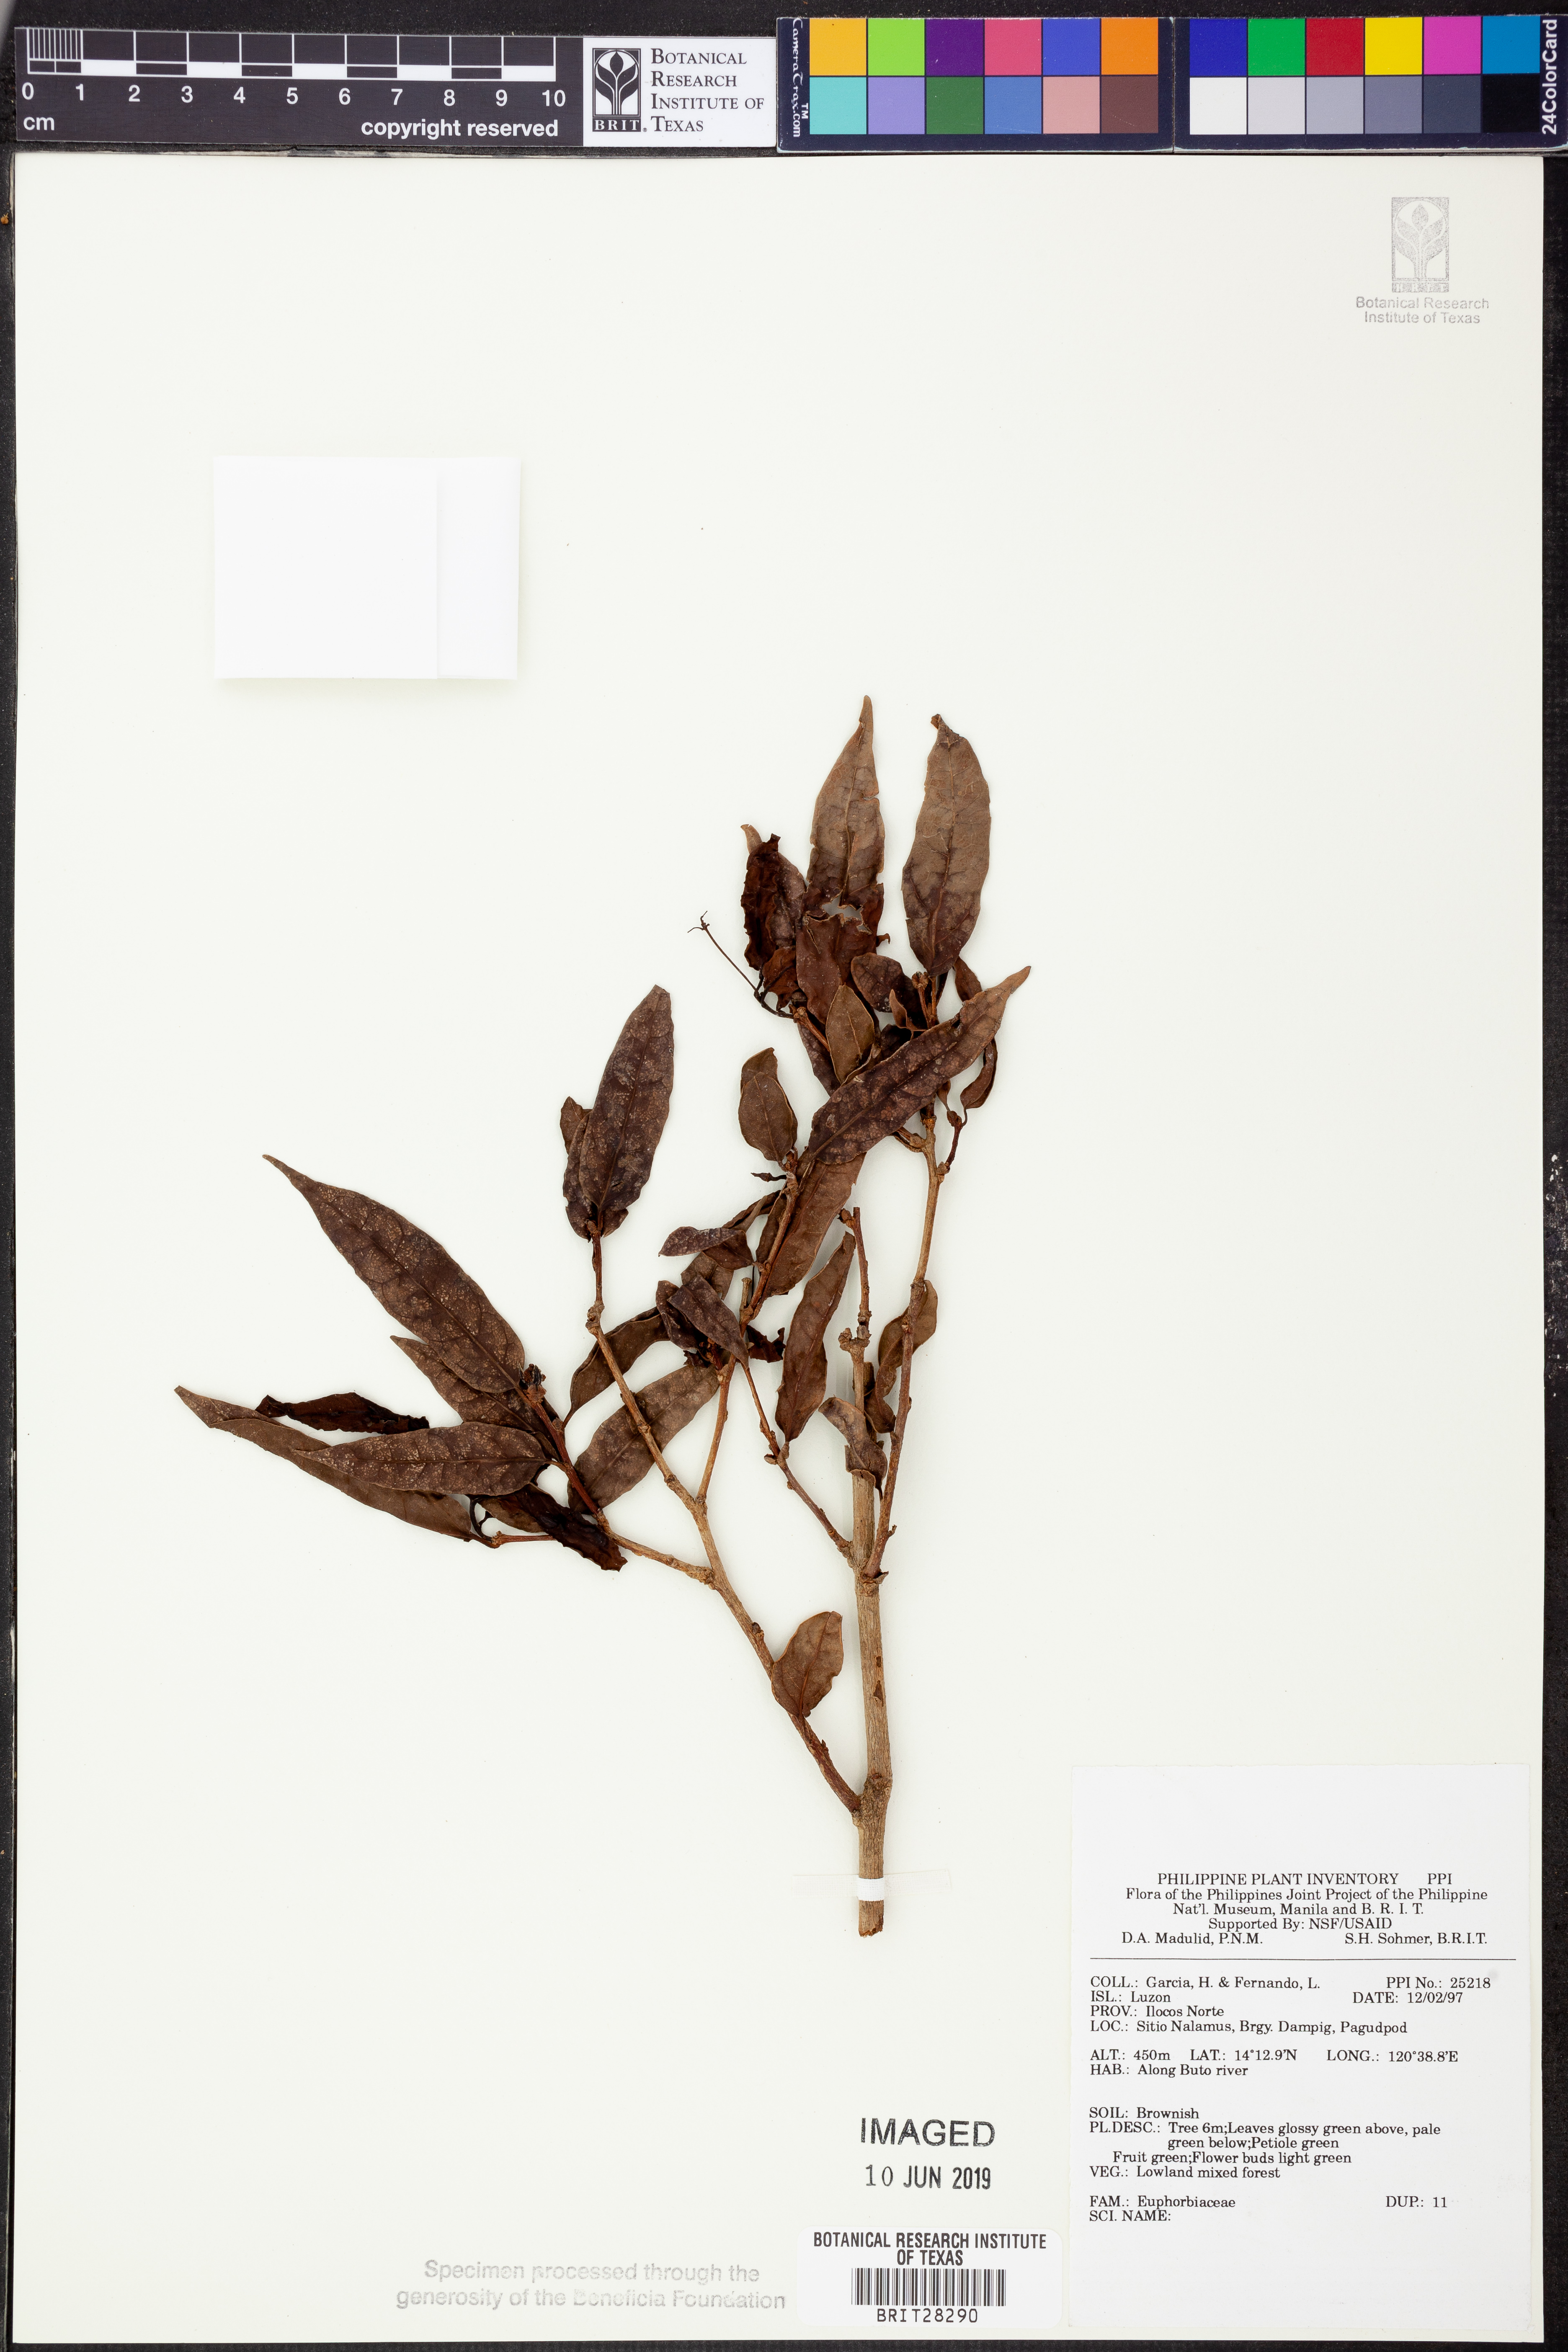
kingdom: Plantae
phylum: Tracheophyta
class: Magnoliopsida
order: Malpighiales
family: Euphorbiaceae
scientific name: Euphorbiaceae
